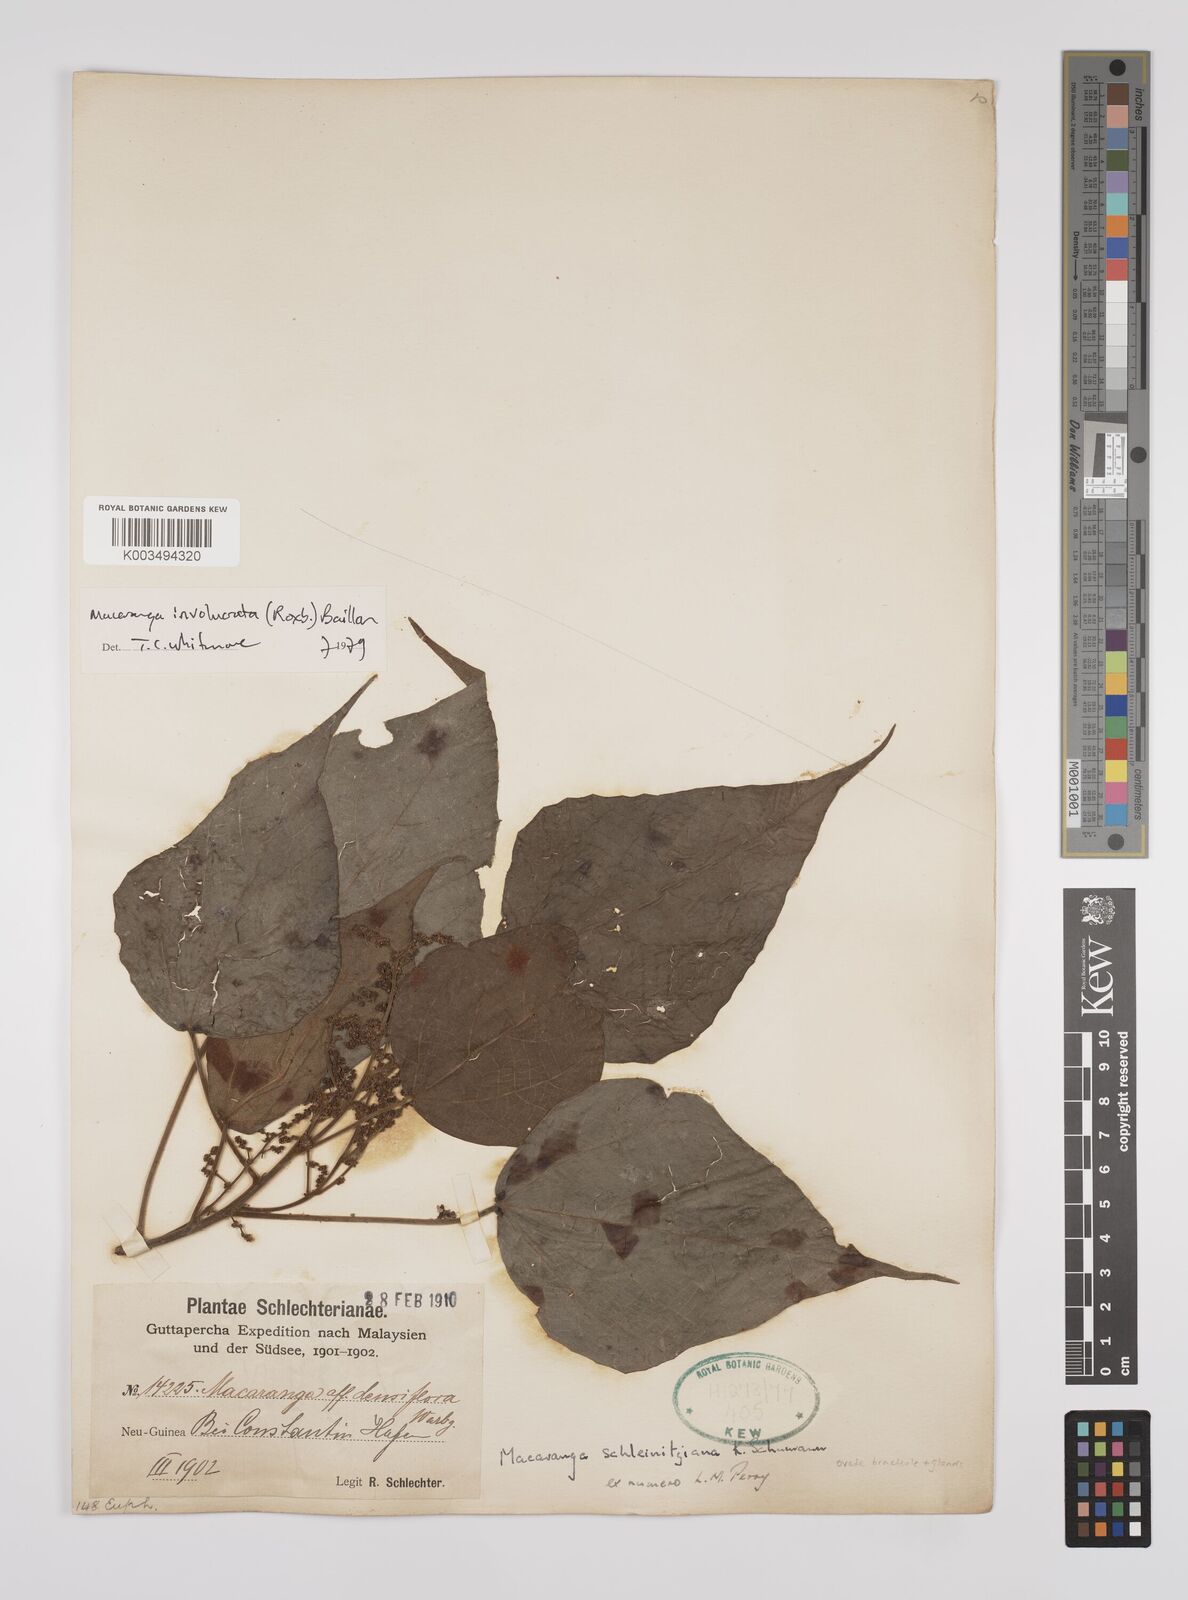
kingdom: Plantae
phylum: Tracheophyta
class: Magnoliopsida
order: Malpighiales
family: Euphorbiaceae
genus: Macaranga
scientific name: Macaranga involucrata
